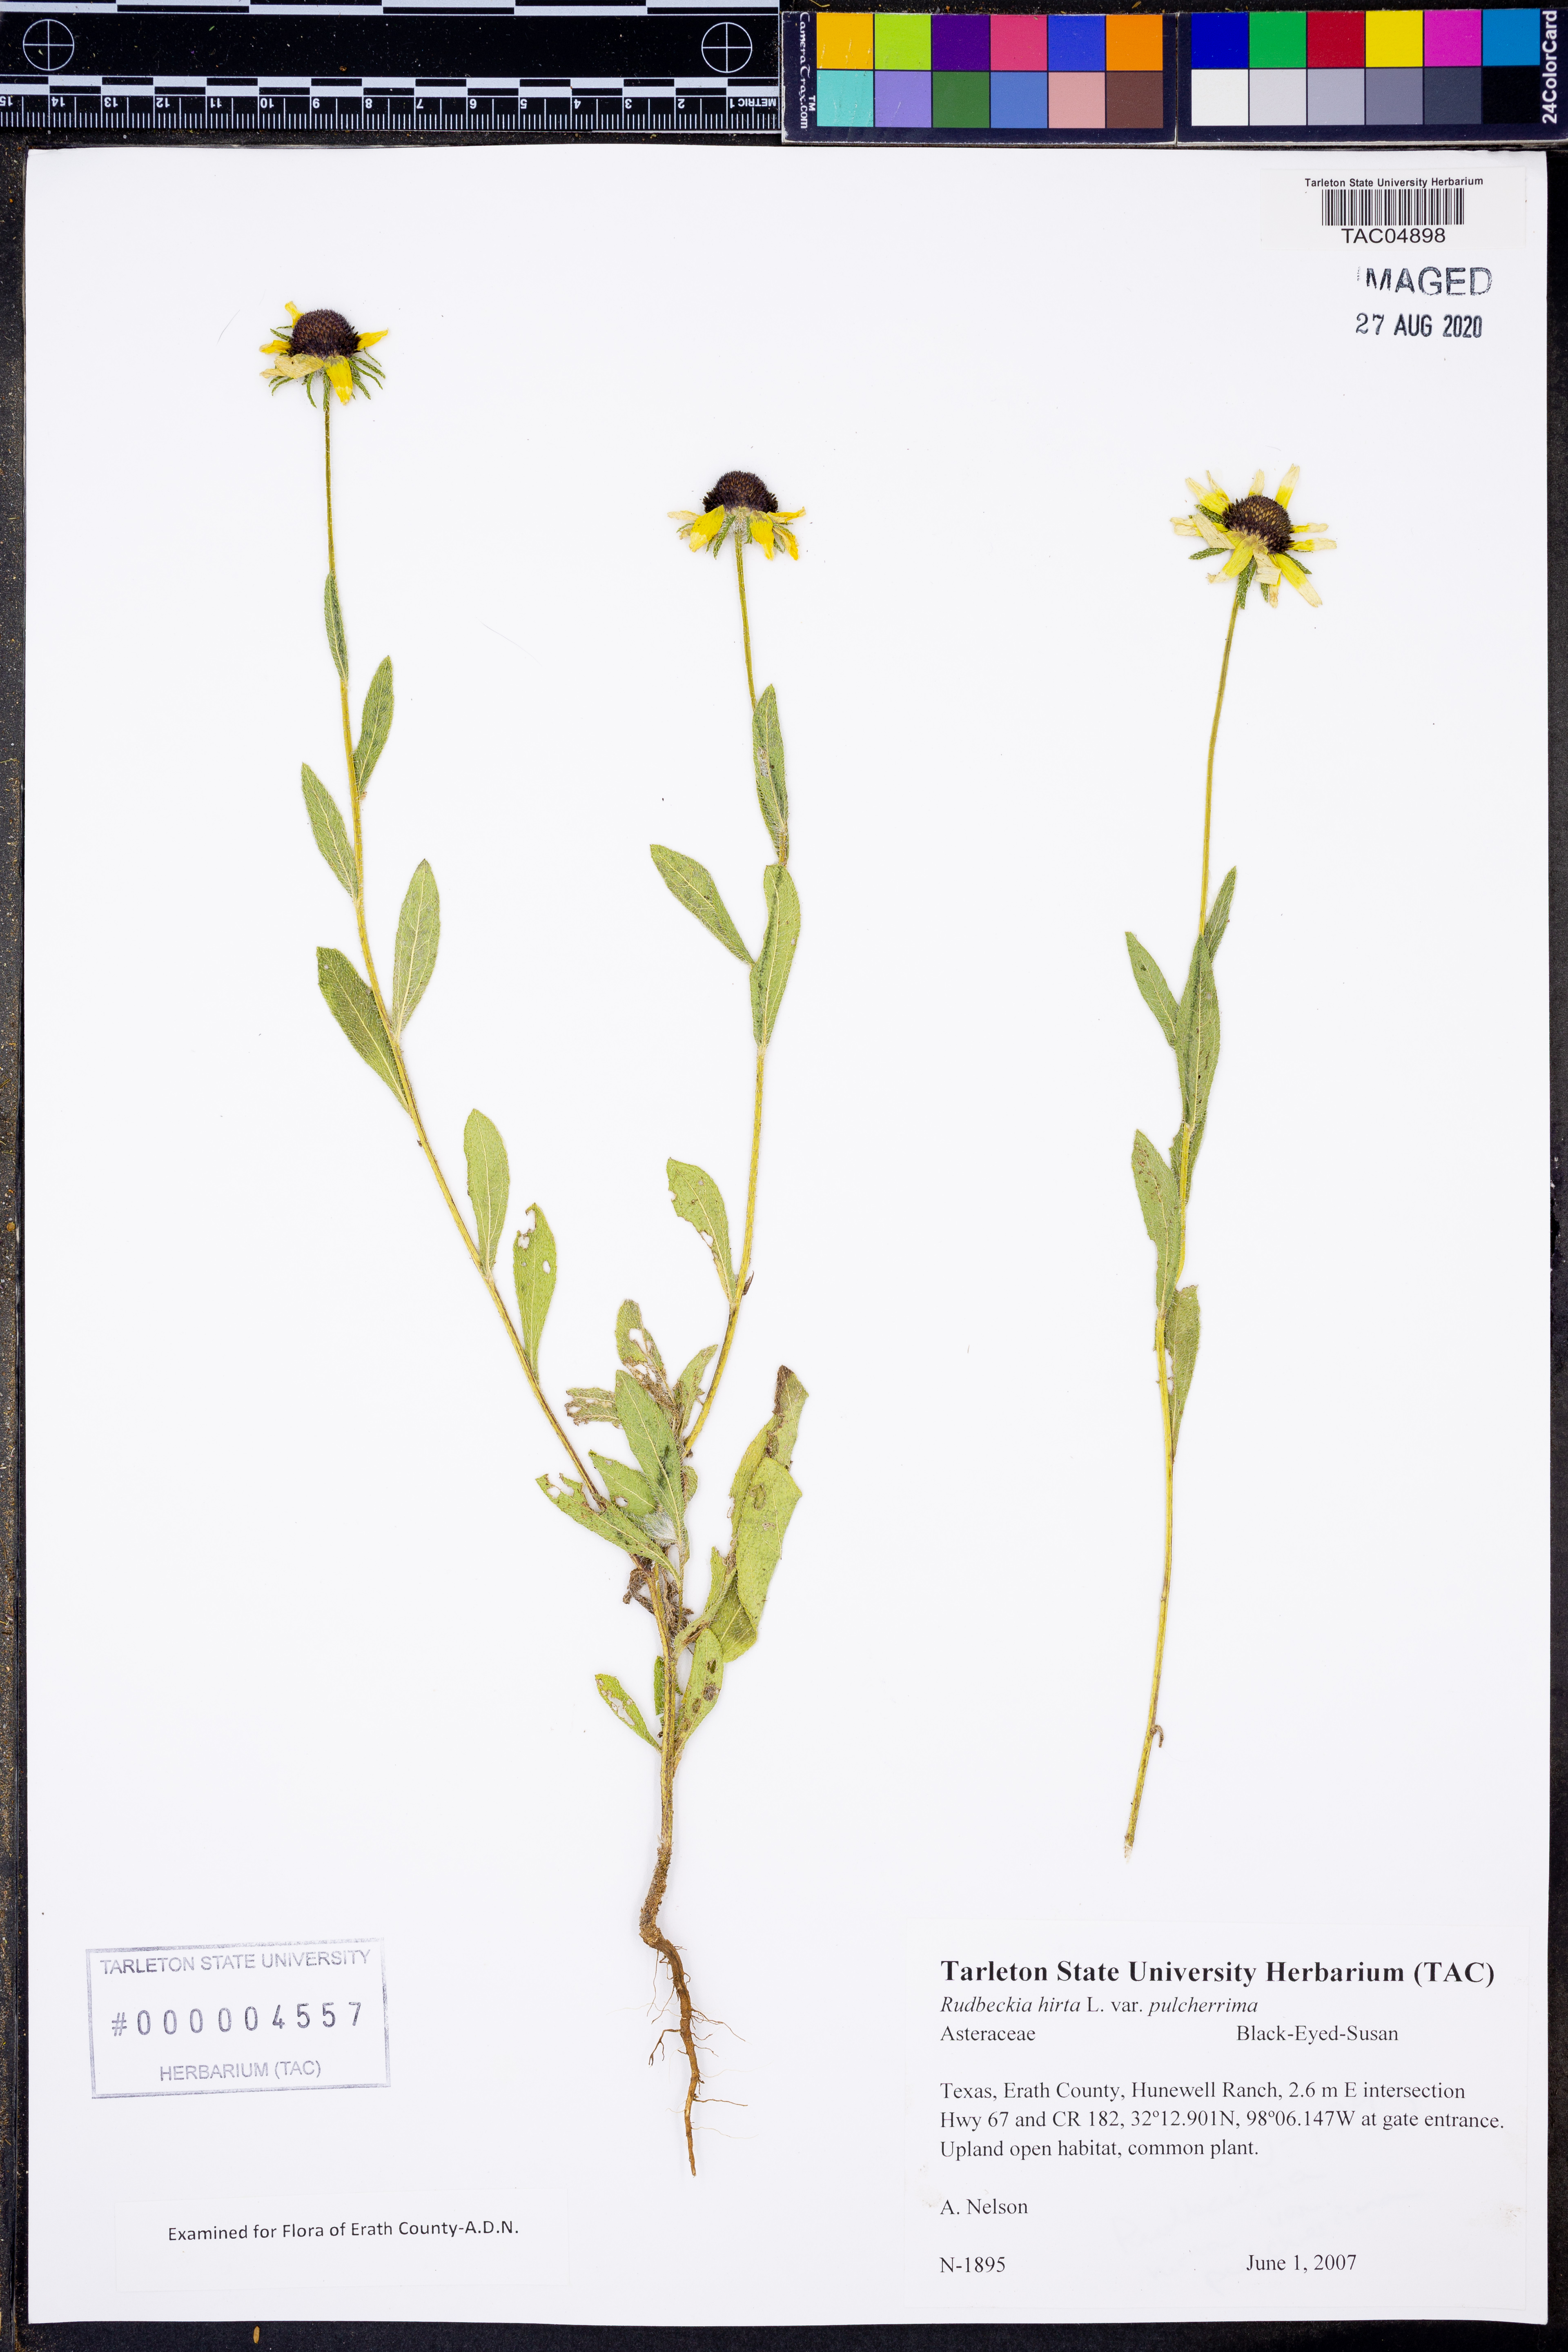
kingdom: Plantae
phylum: Tracheophyta
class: Magnoliopsida
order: Asterales
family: Asteraceae
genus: Rudbeckia
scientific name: Rudbeckia hirta
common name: Black-eyed-susan
